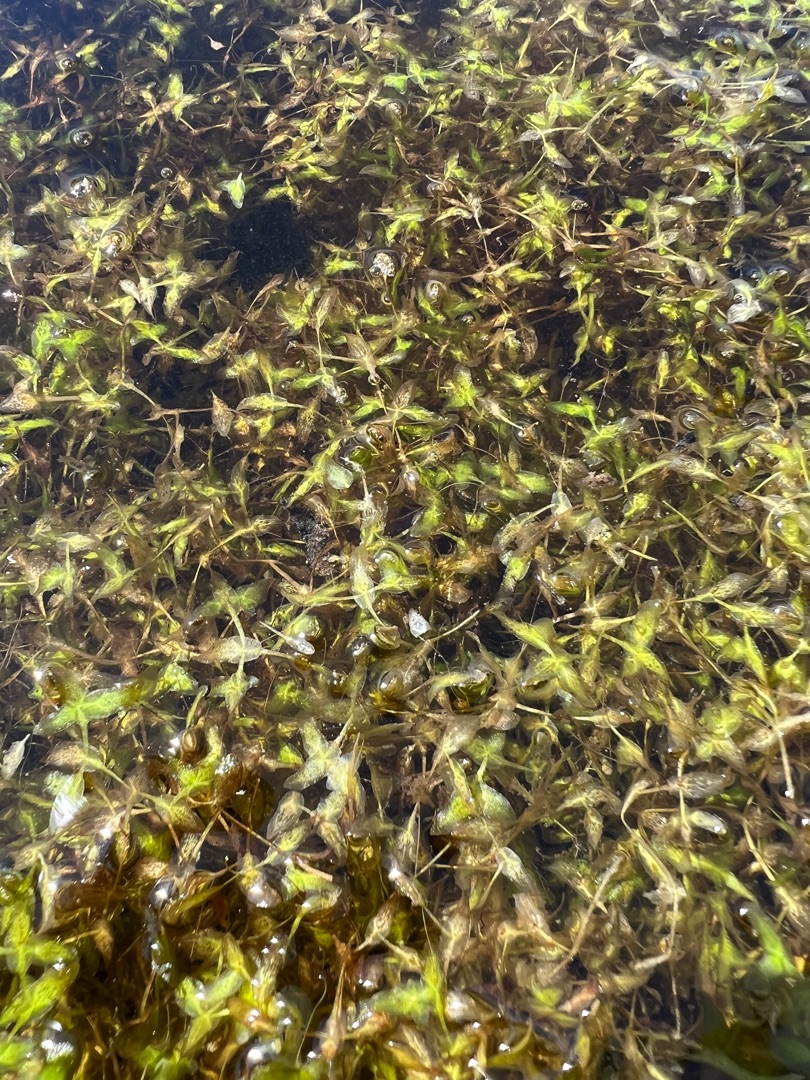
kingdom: Plantae
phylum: Tracheophyta
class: Liliopsida
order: Alismatales
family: Araceae
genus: Lemna
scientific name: Lemna trisulca
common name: Kors-andemad
